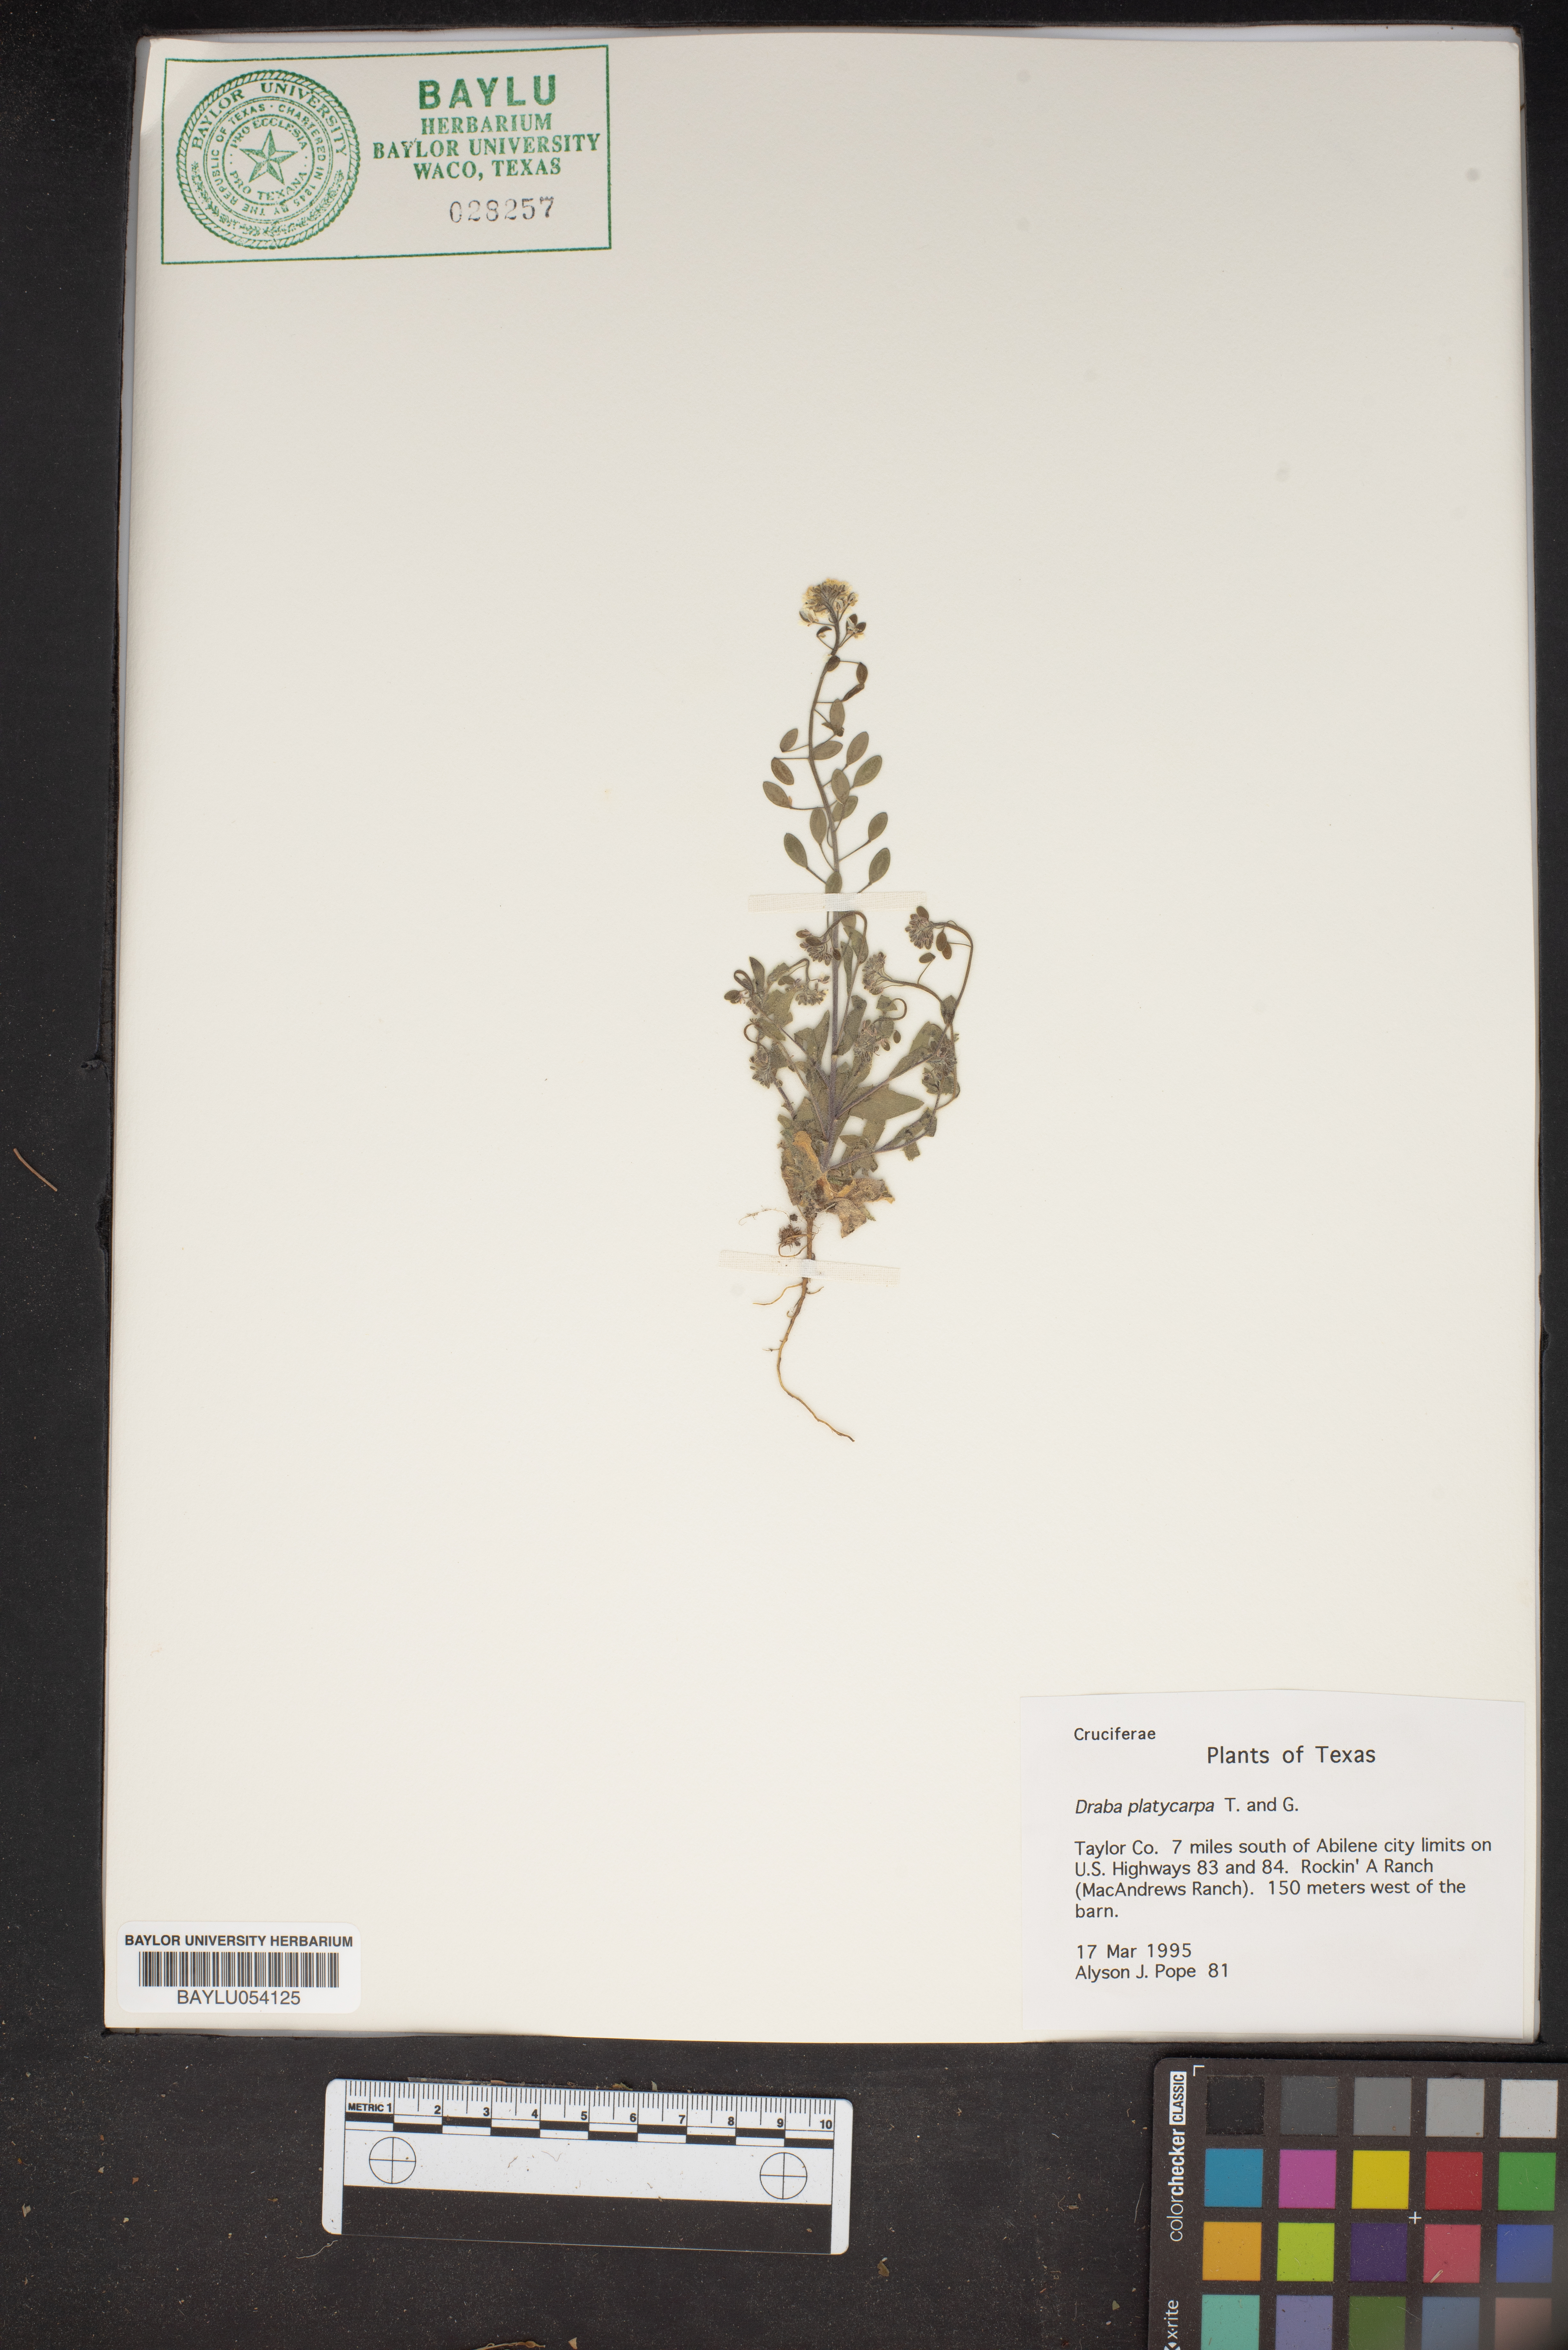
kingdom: Plantae
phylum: Tracheophyta
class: Magnoliopsida
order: Brassicales
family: Brassicaceae
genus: Tomostima
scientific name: Tomostima platycarpa
